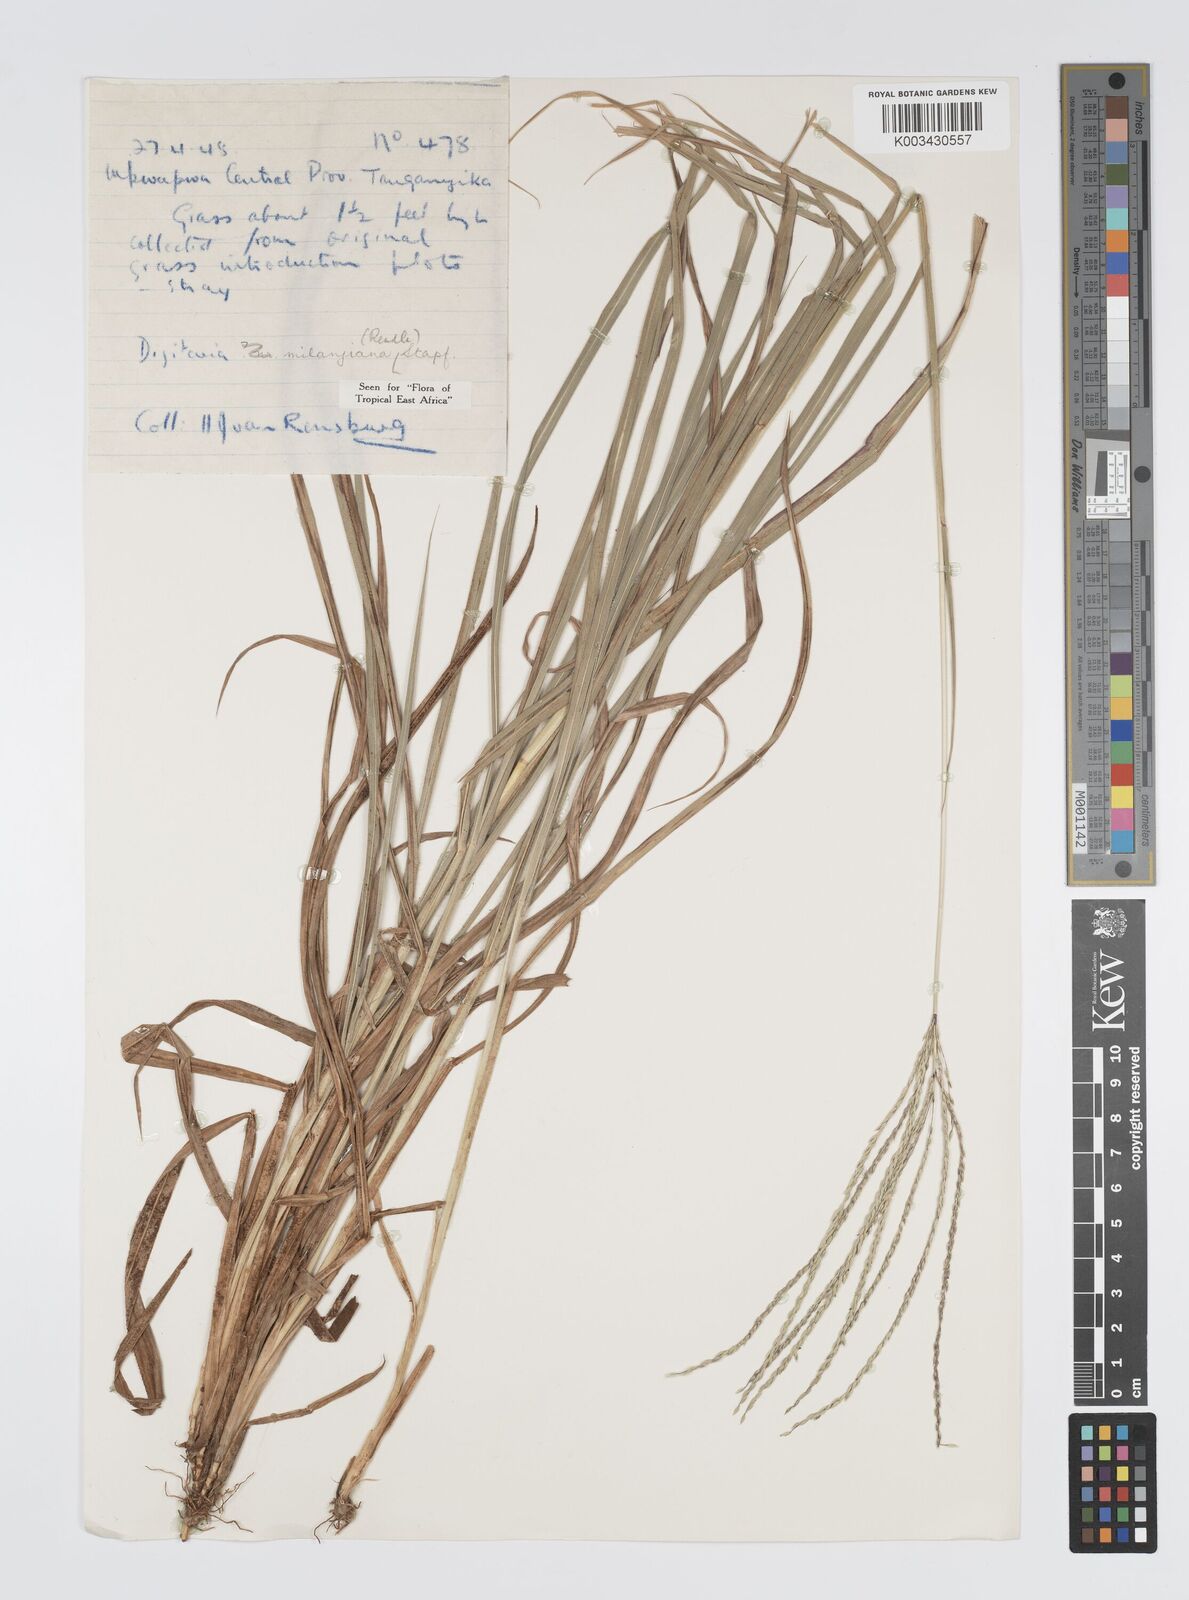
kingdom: Plantae
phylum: Tracheophyta
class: Liliopsida
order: Poales
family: Poaceae
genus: Digitaria
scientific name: Digitaria milanjiana
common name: Madagascar crabgrass
